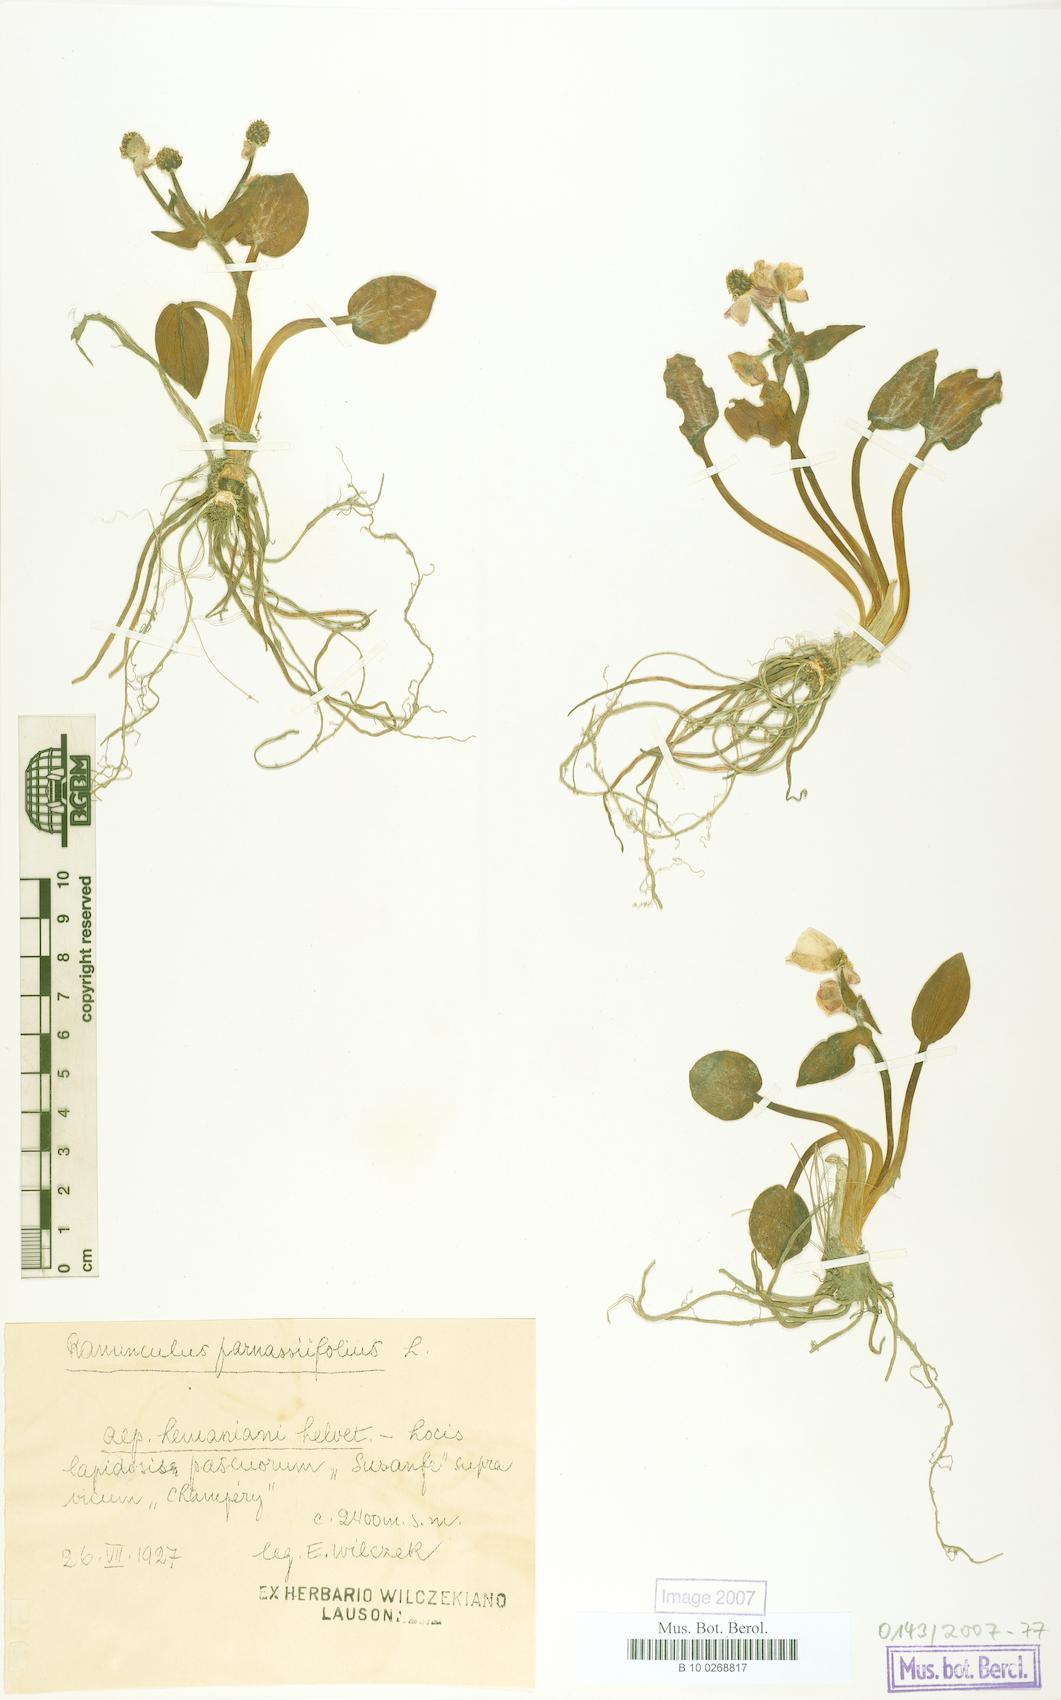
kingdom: Plantae
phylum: Tracheophyta
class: Magnoliopsida
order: Ranunculales
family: Ranunculaceae
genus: Ranunculus
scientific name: Ranunculus parnassiifolius
